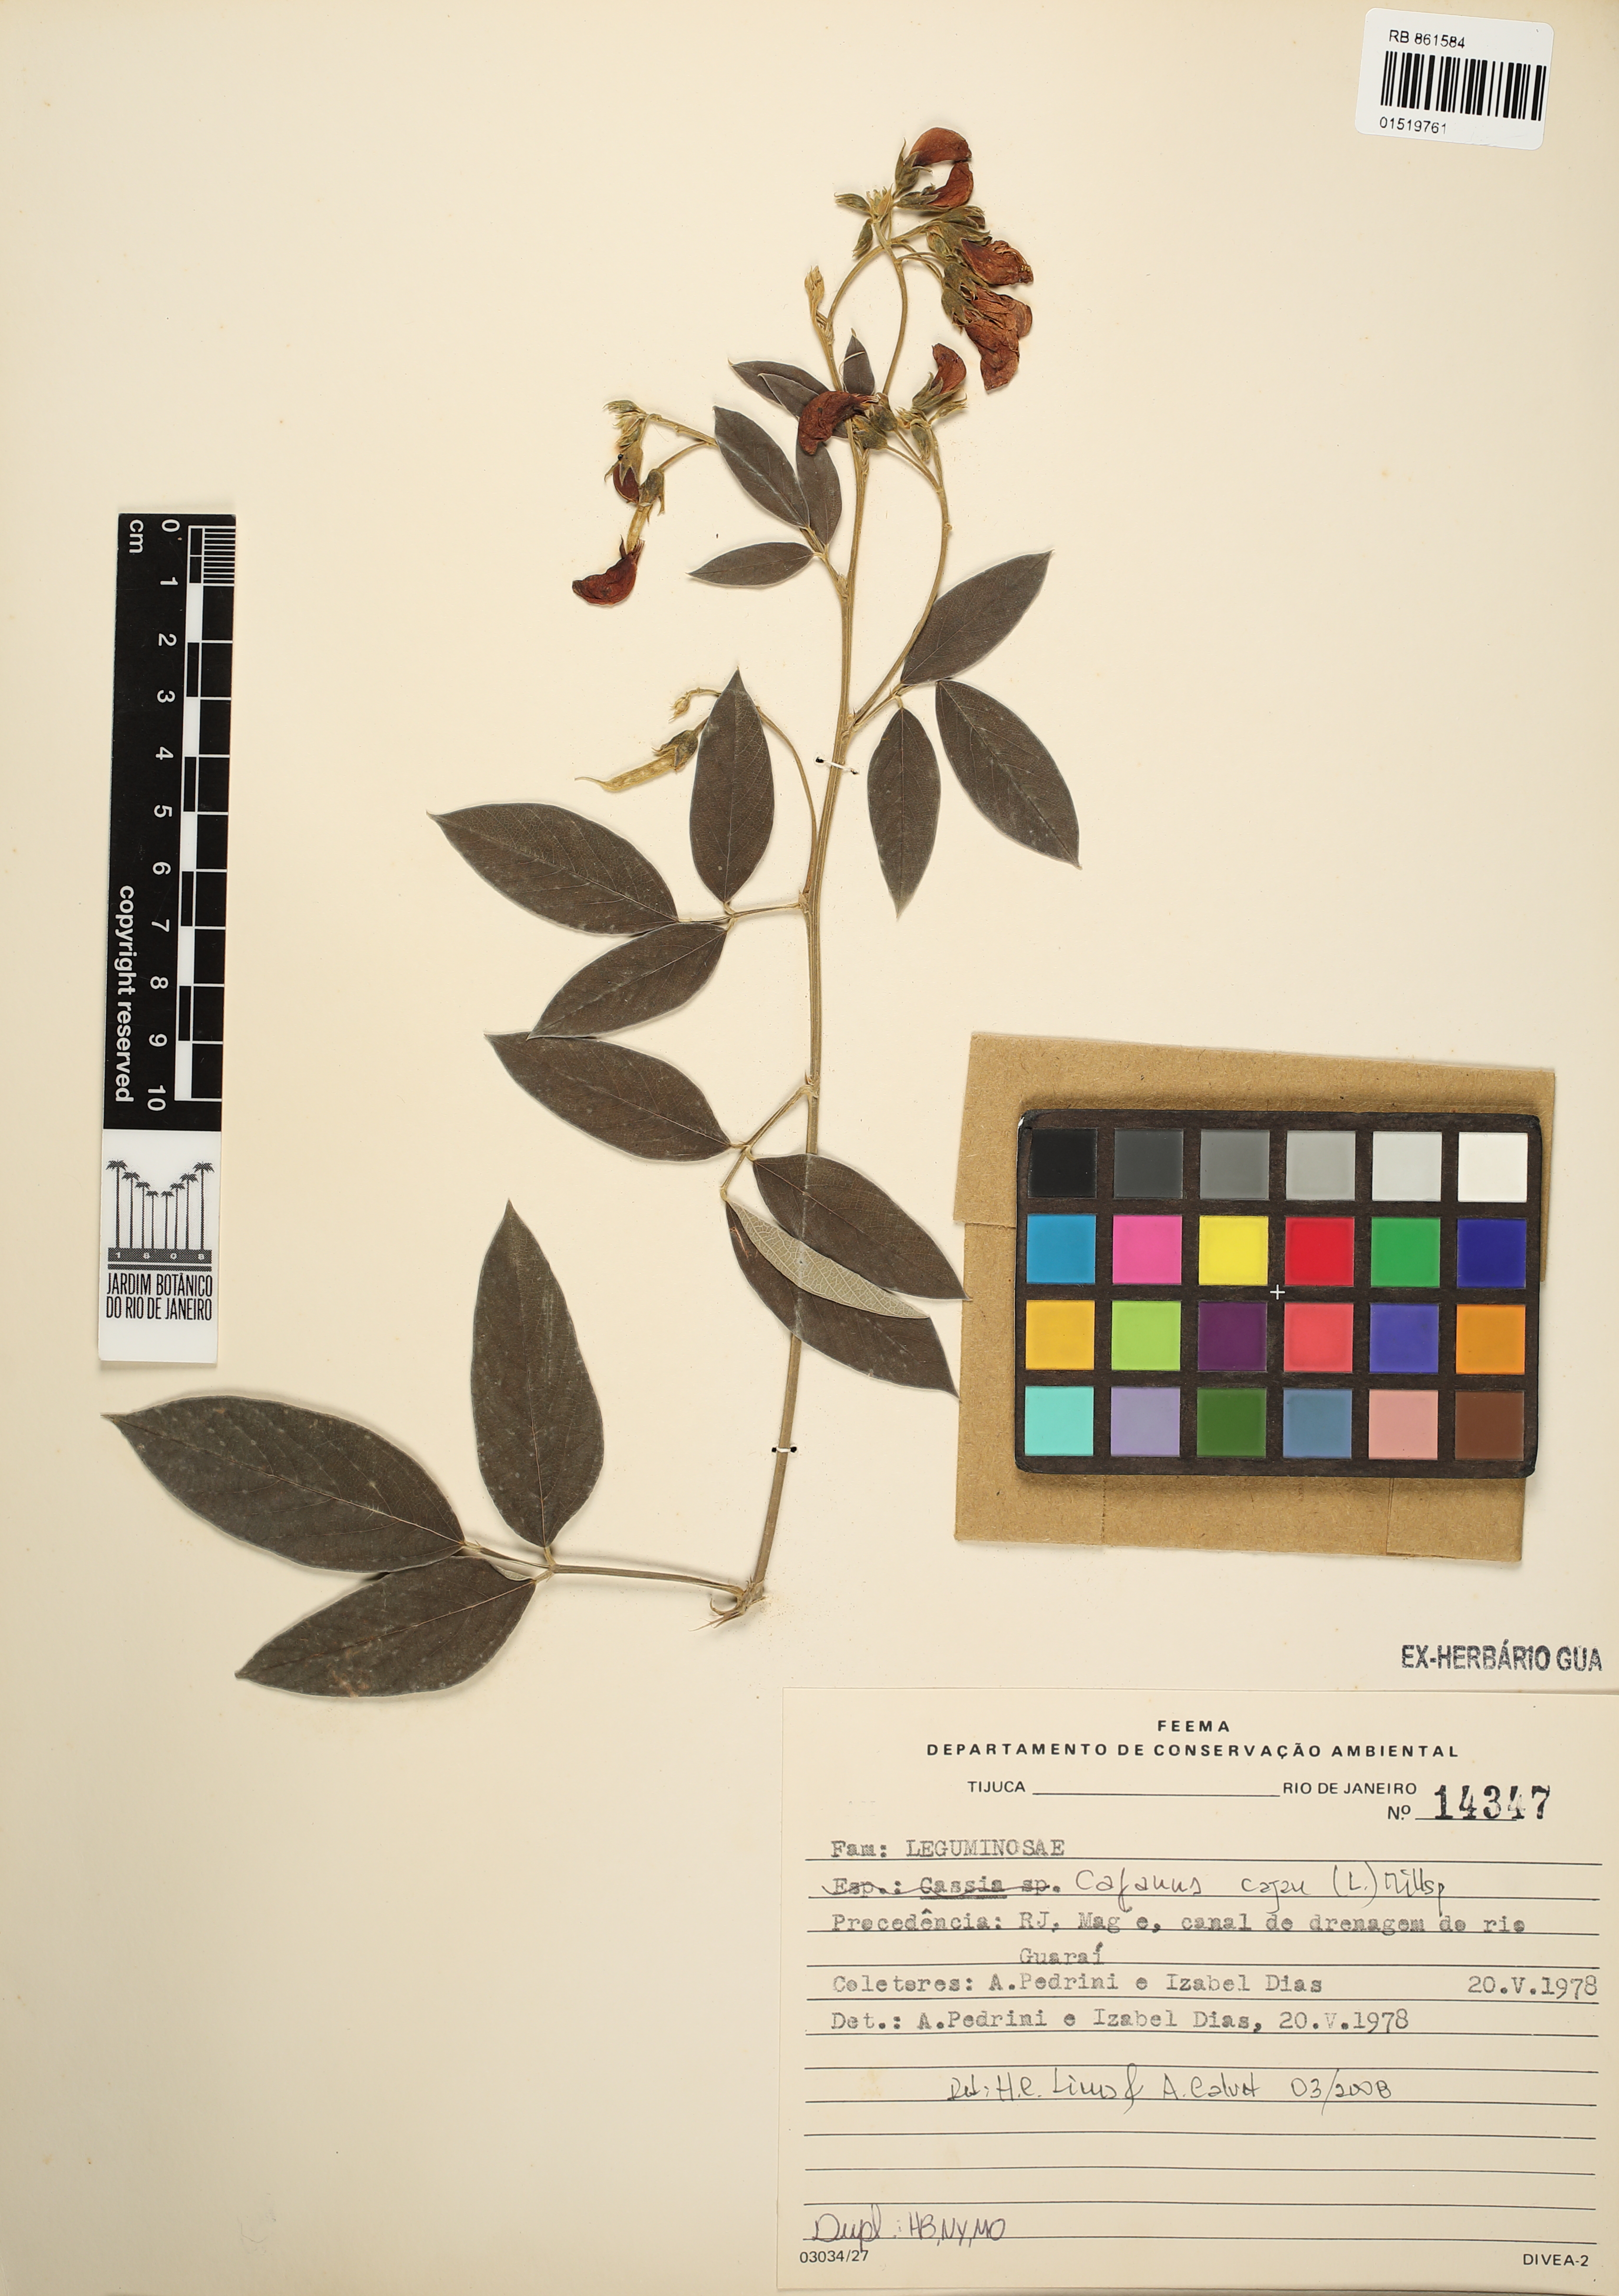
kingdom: Plantae
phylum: Tracheophyta
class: Magnoliopsida
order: Fabales
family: Fabaceae
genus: Cajanus
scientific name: Cajanus cajan
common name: Pigeonpea
